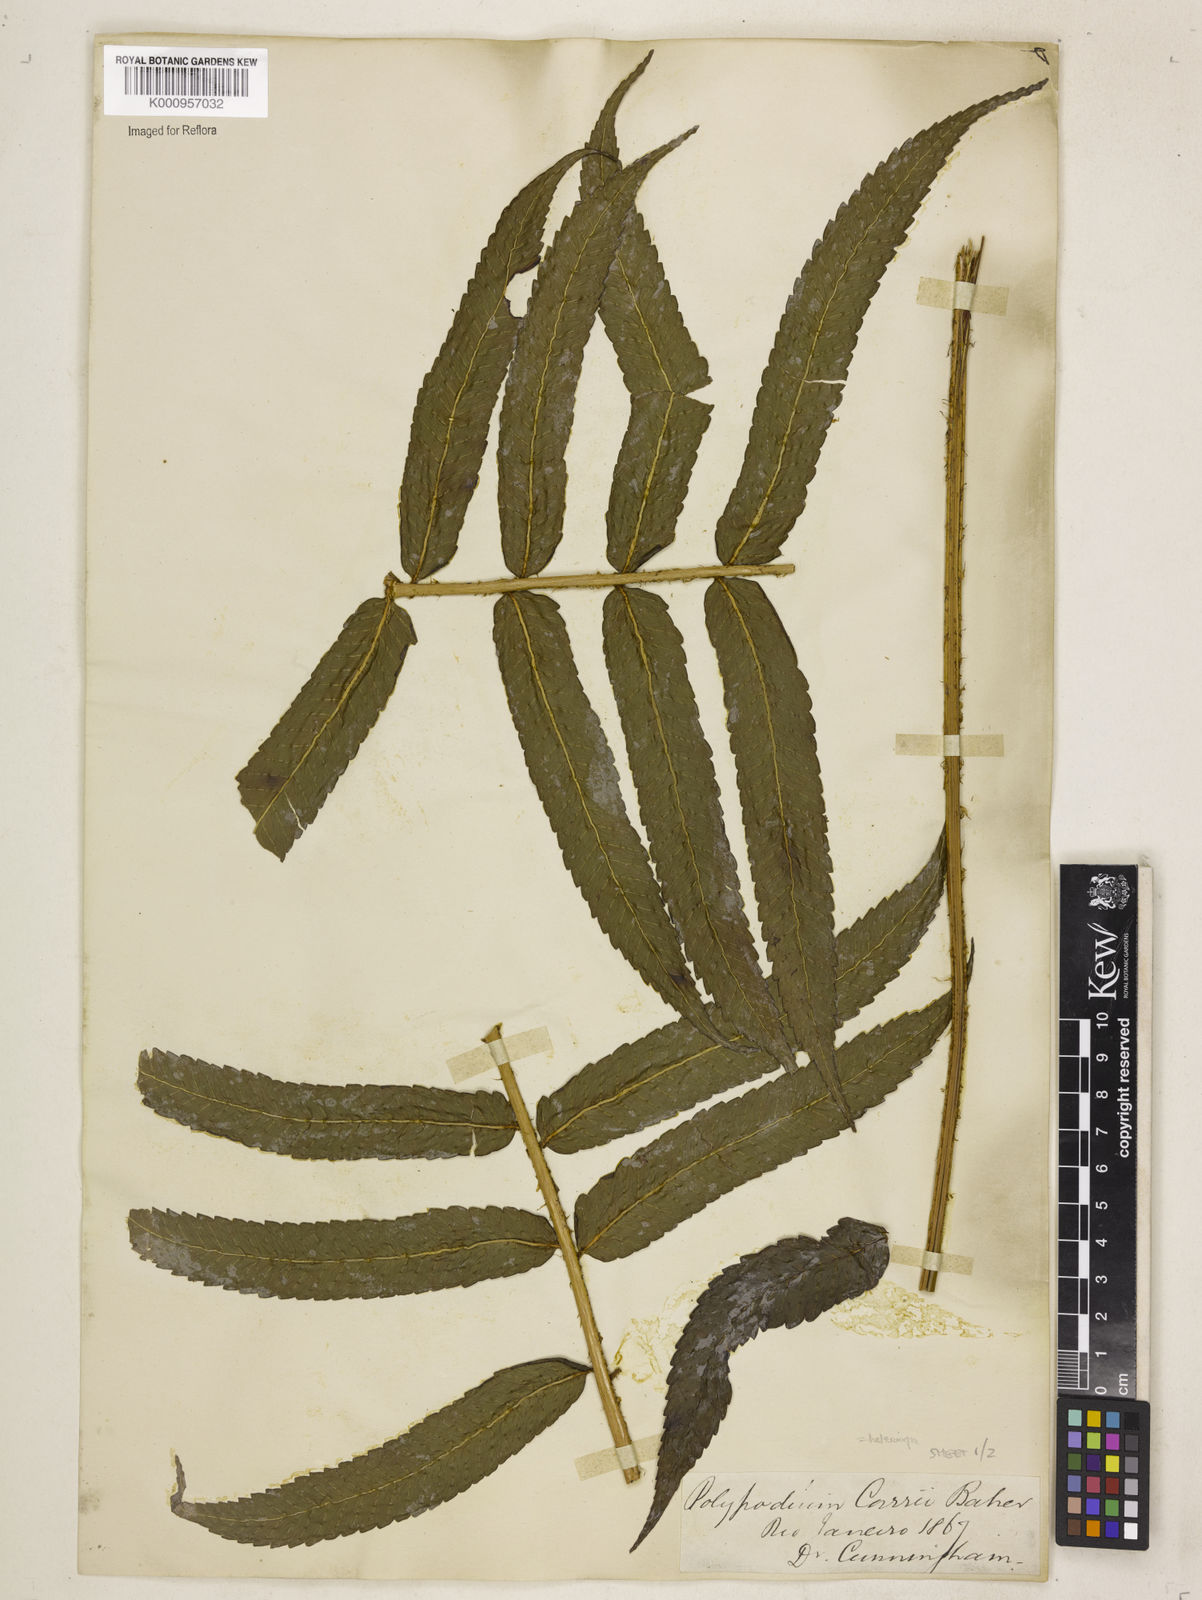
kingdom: Plantae
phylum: Tracheophyta
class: Polypodiopsida
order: Polypodiales
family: Dryopteridaceae
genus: Stigmatopteris
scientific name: Stigmatopteris
